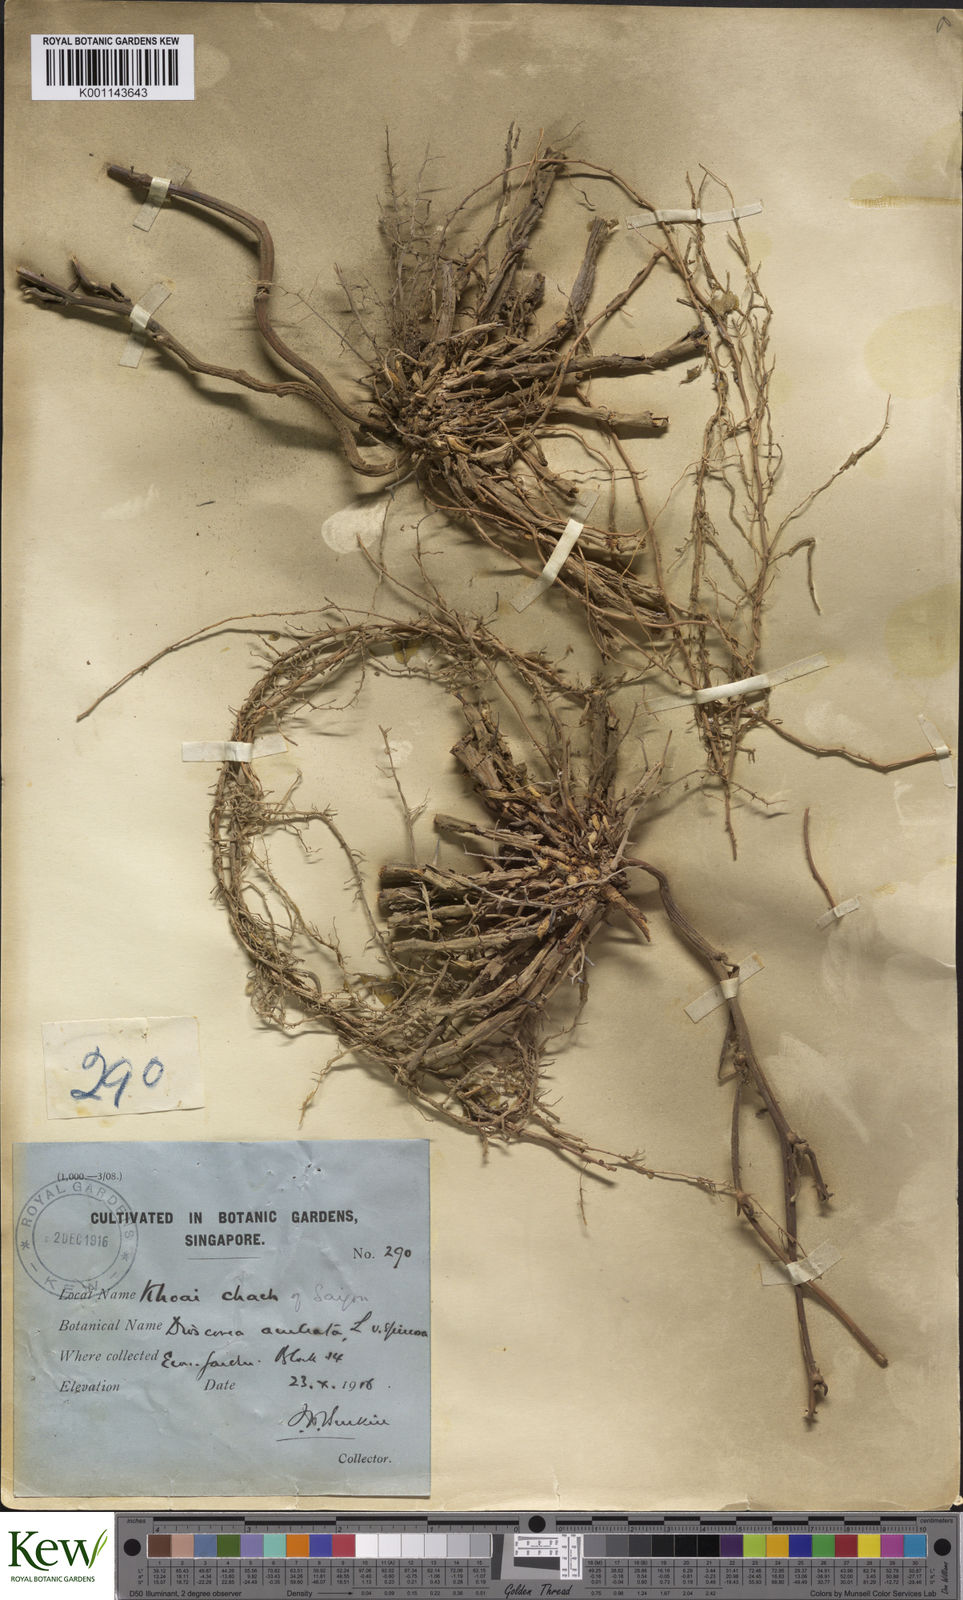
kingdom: Plantae
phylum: Tracheophyta
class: Liliopsida
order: Dioscoreales
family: Dioscoreaceae
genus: Dioscorea
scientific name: Dioscorea esculenta
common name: Chinese yam
